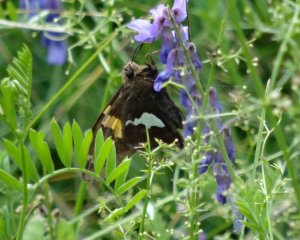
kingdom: Animalia
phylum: Arthropoda
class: Insecta
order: Lepidoptera
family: Hesperiidae
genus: Epargyreus
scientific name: Epargyreus clarus
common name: Silver-spotted Skipper
